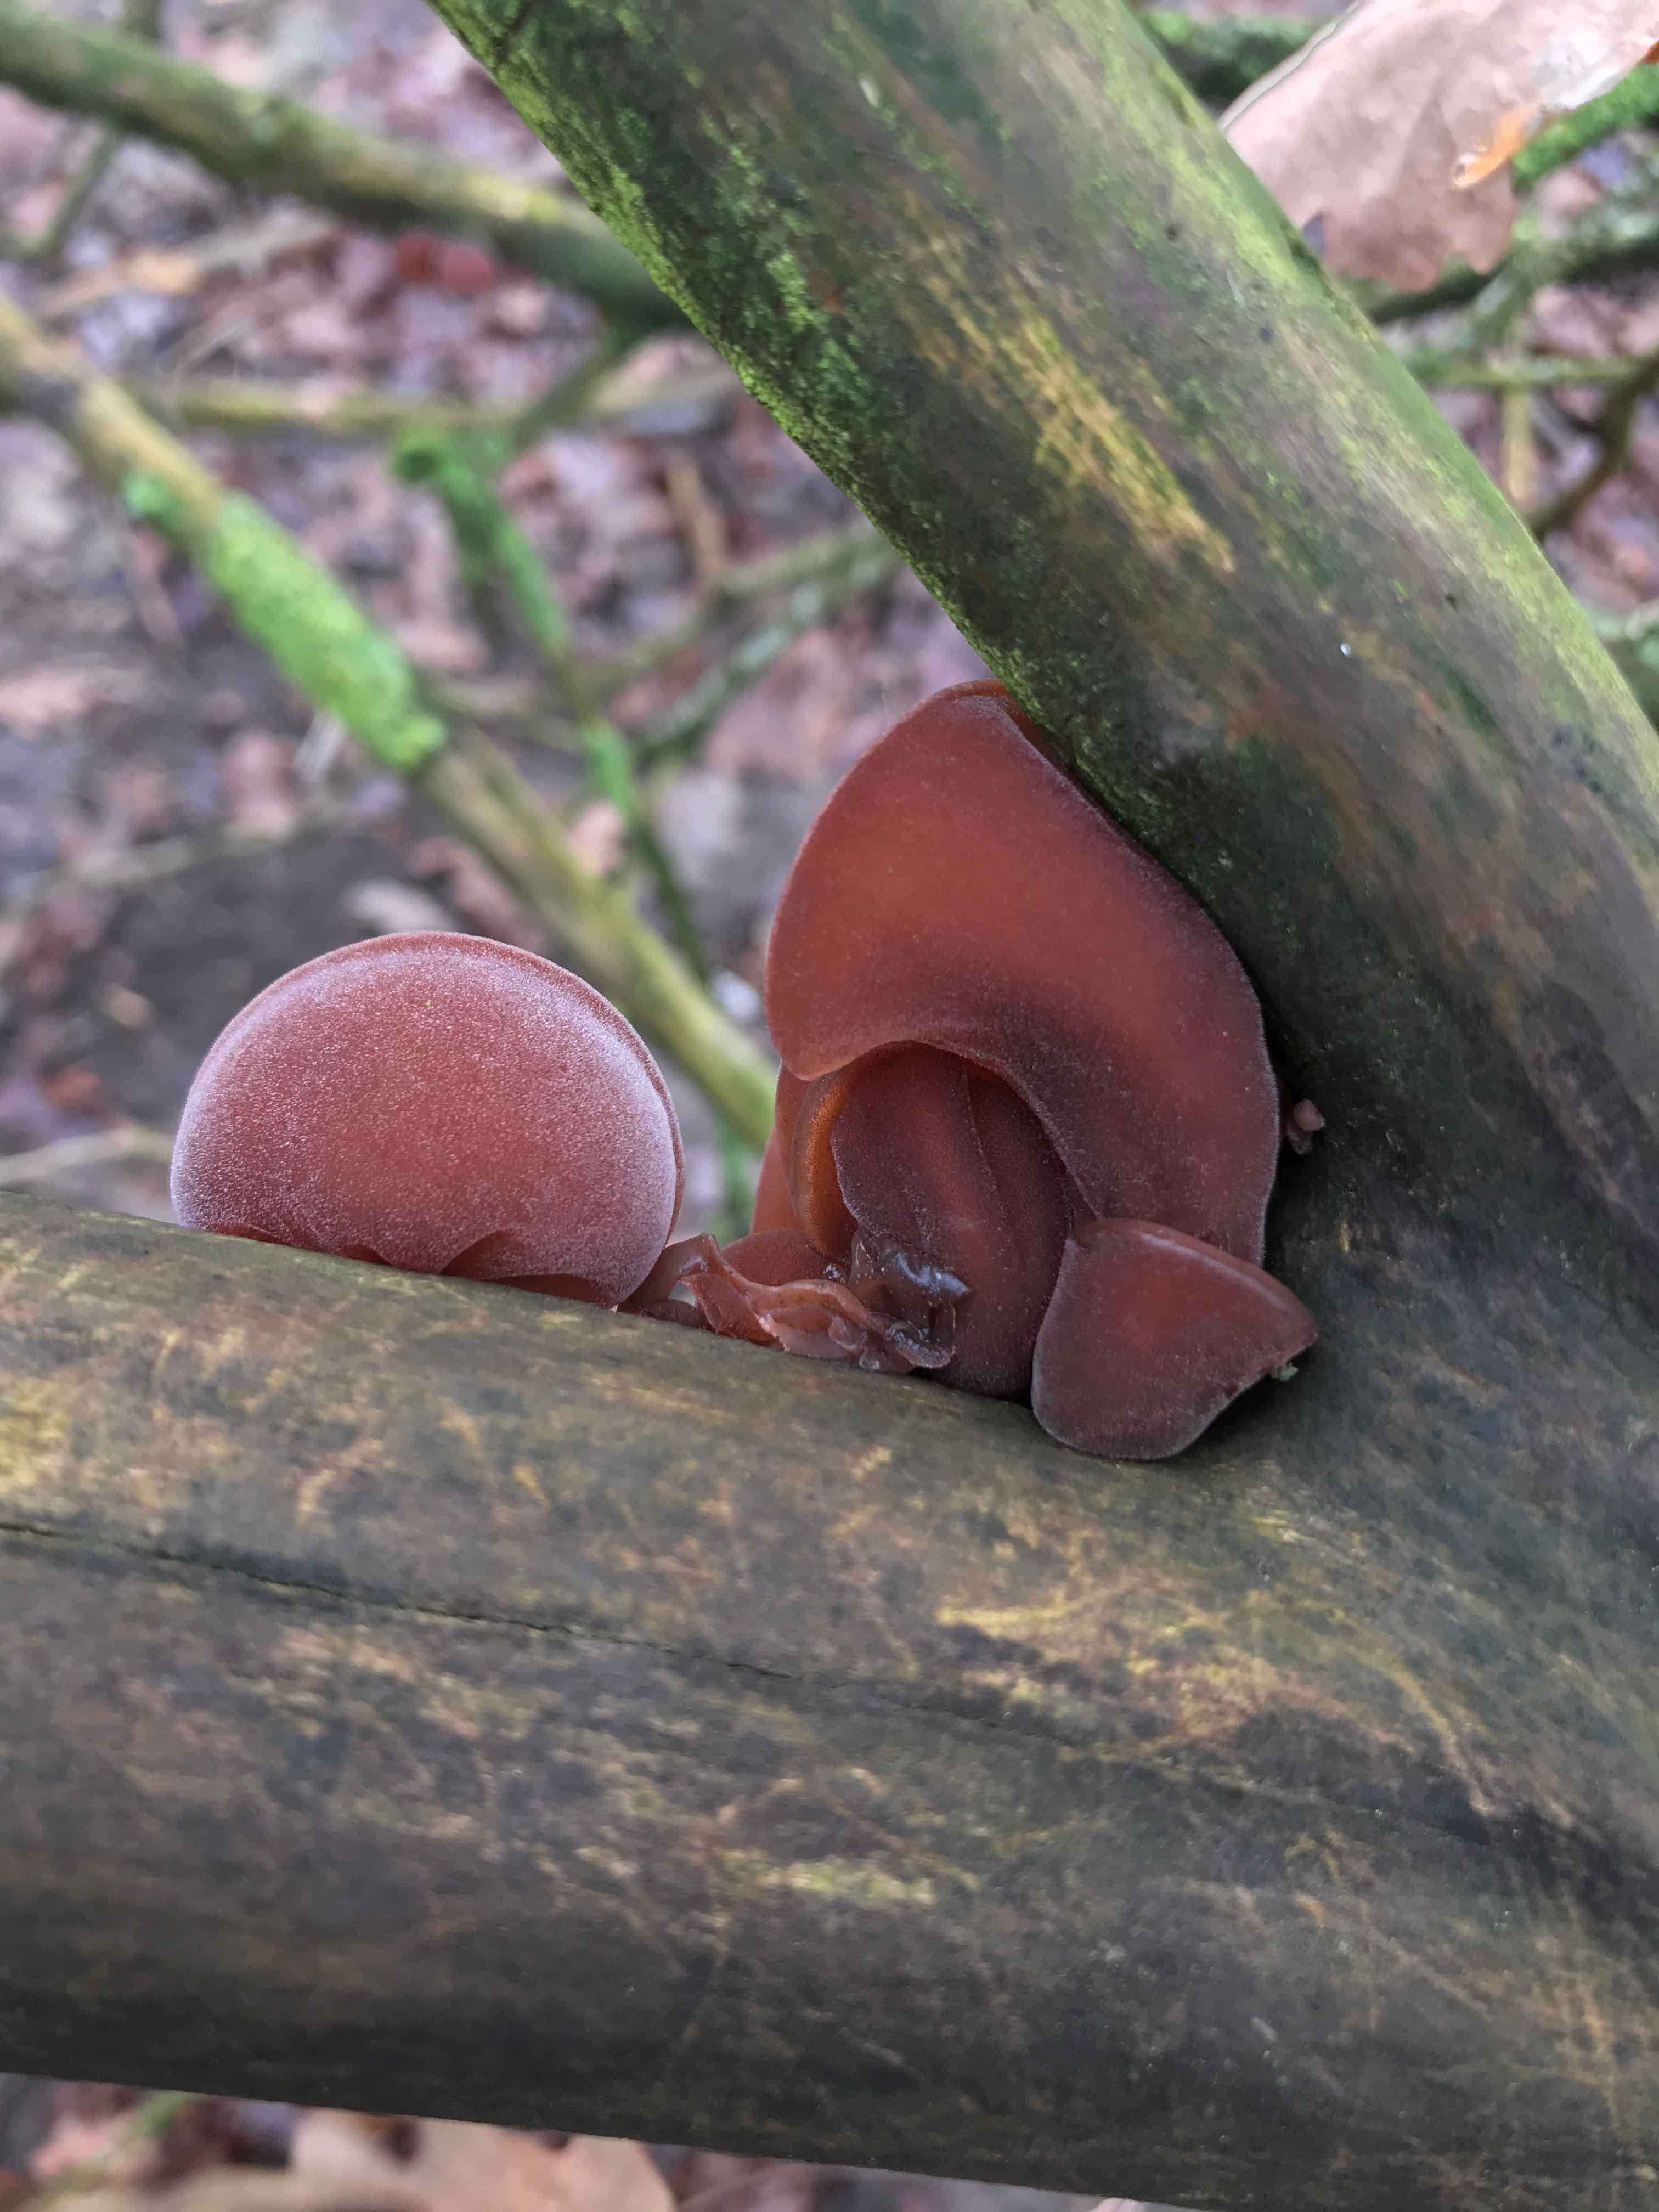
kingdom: Fungi
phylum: Basidiomycota
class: Agaricomycetes
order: Auriculariales
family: Auriculariaceae
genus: Auricularia
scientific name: Auricularia auricula-judae
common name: almindelig judasøre
